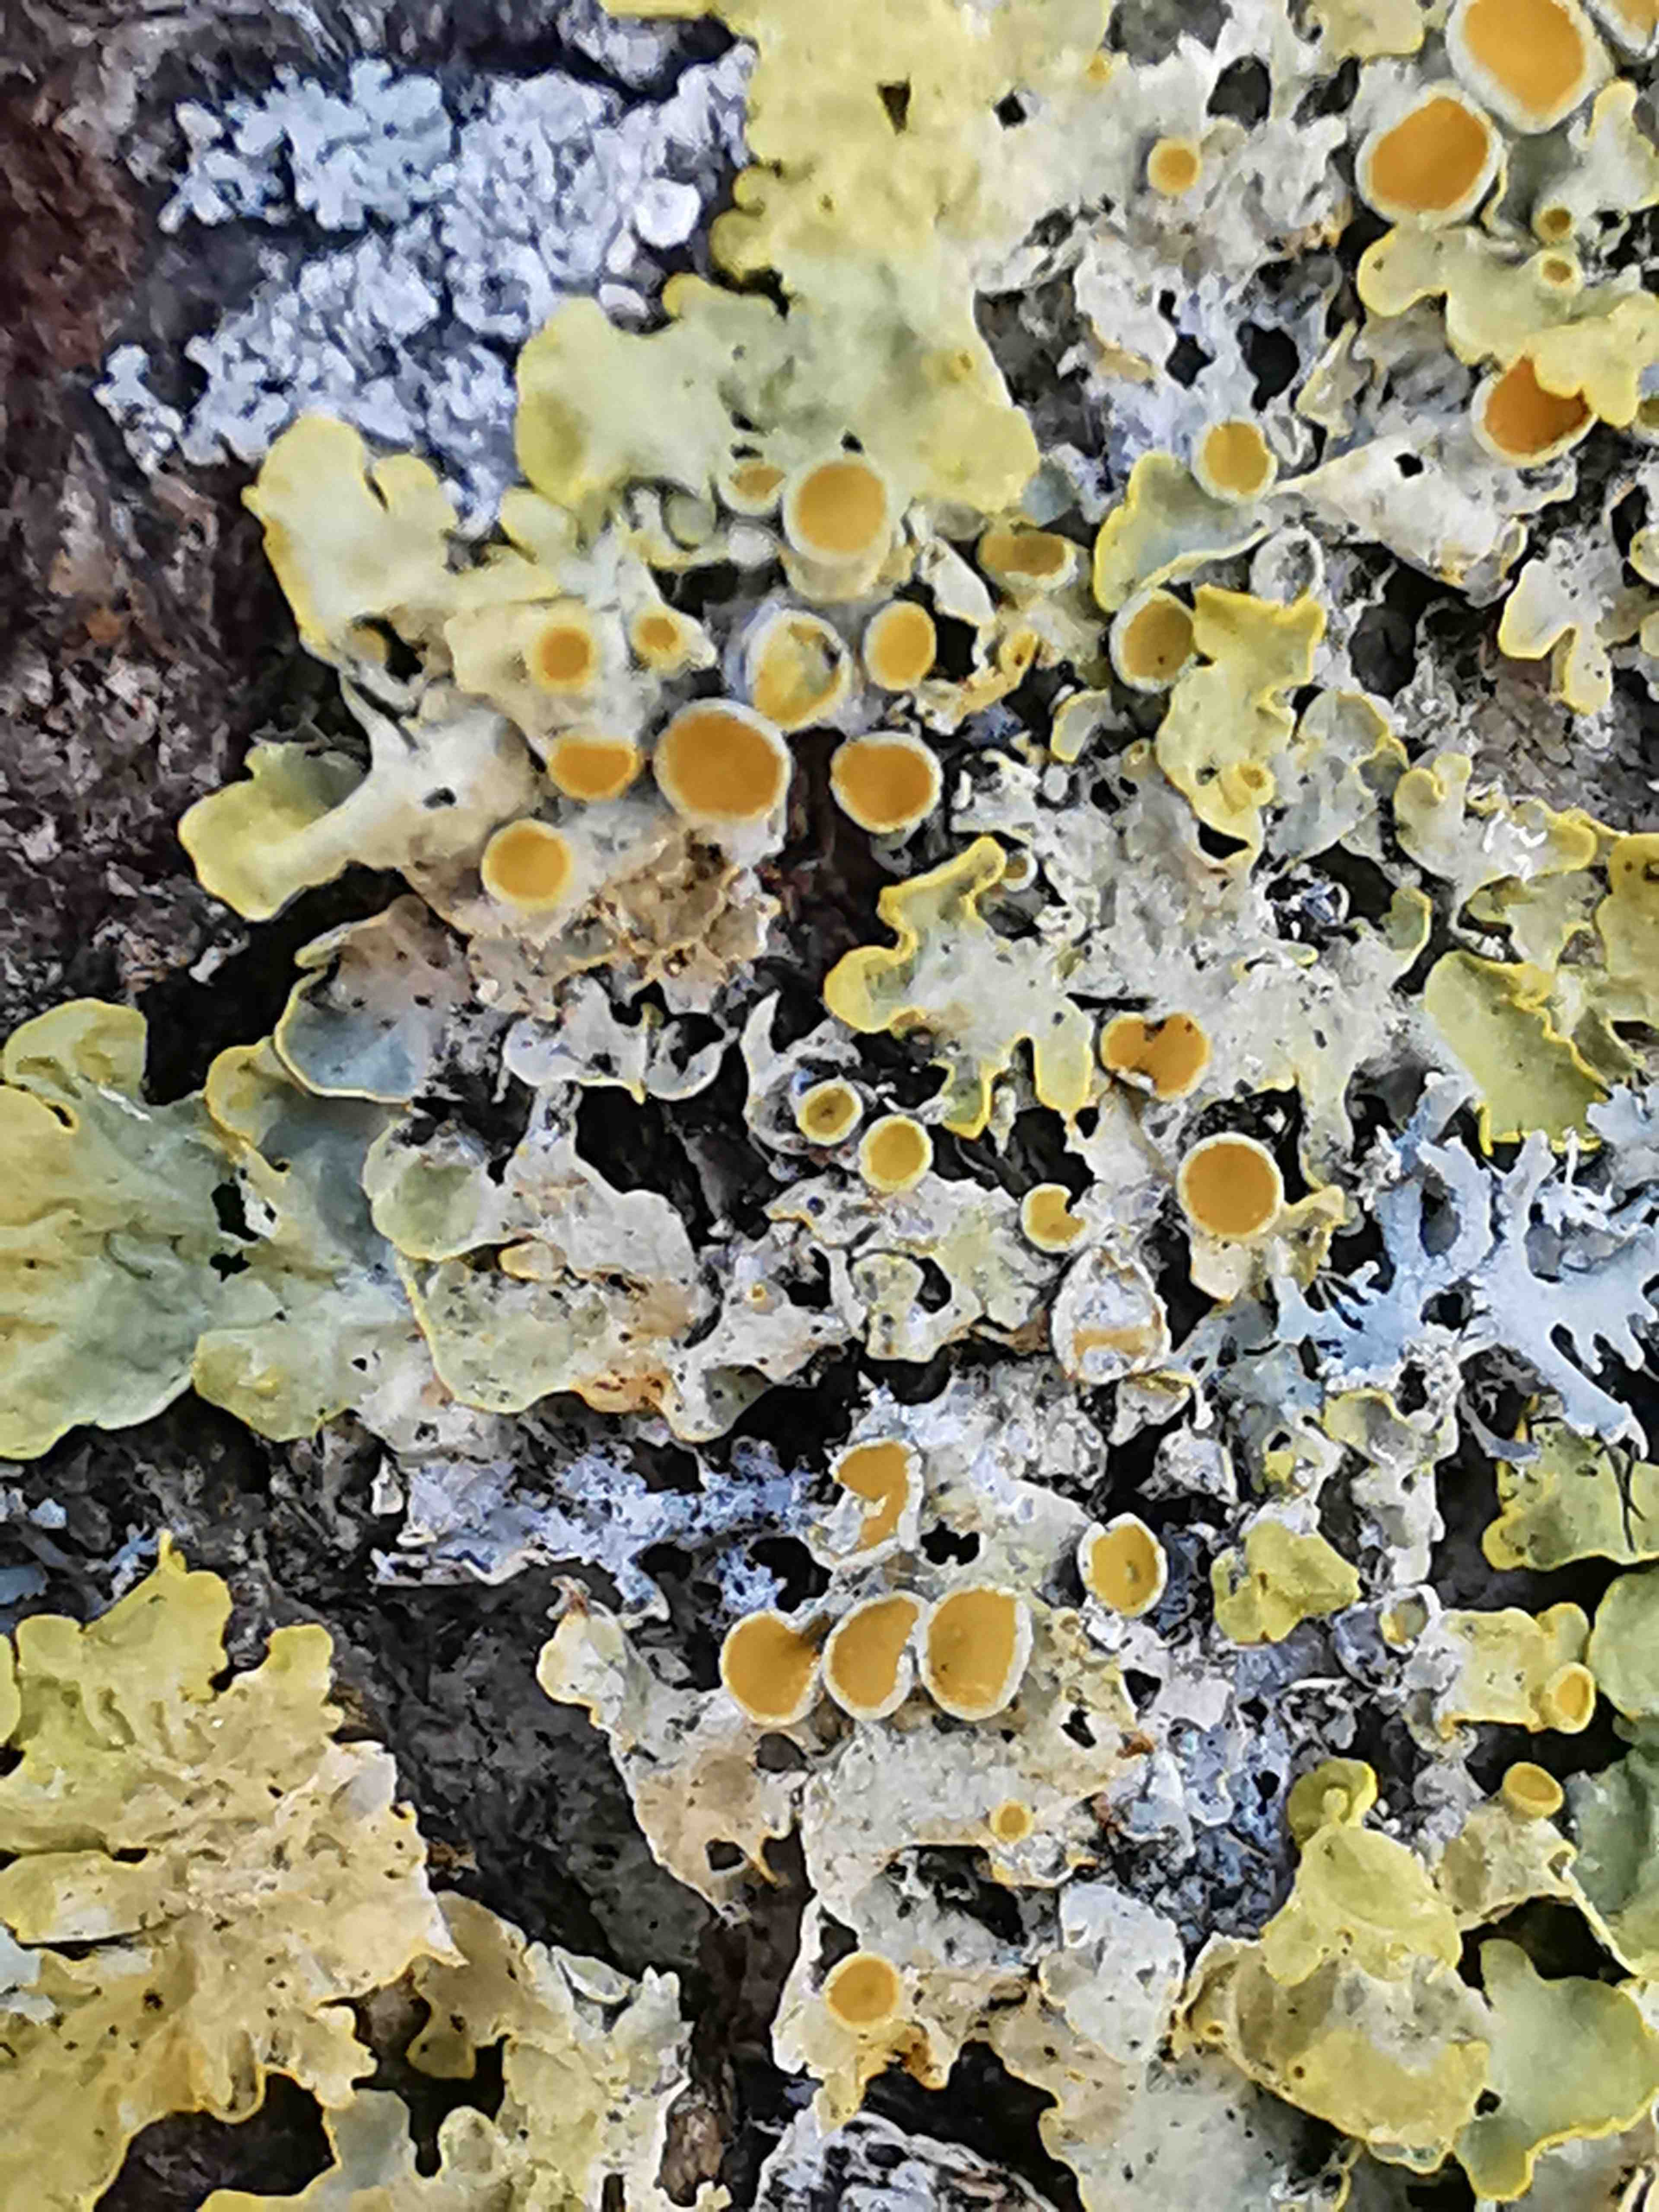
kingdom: Fungi
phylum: Ascomycota
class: Lecanoromycetes
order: Teloschistales
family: Teloschistaceae
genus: Xanthoria
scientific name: Xanthoria parietina
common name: almindelig væggelav
